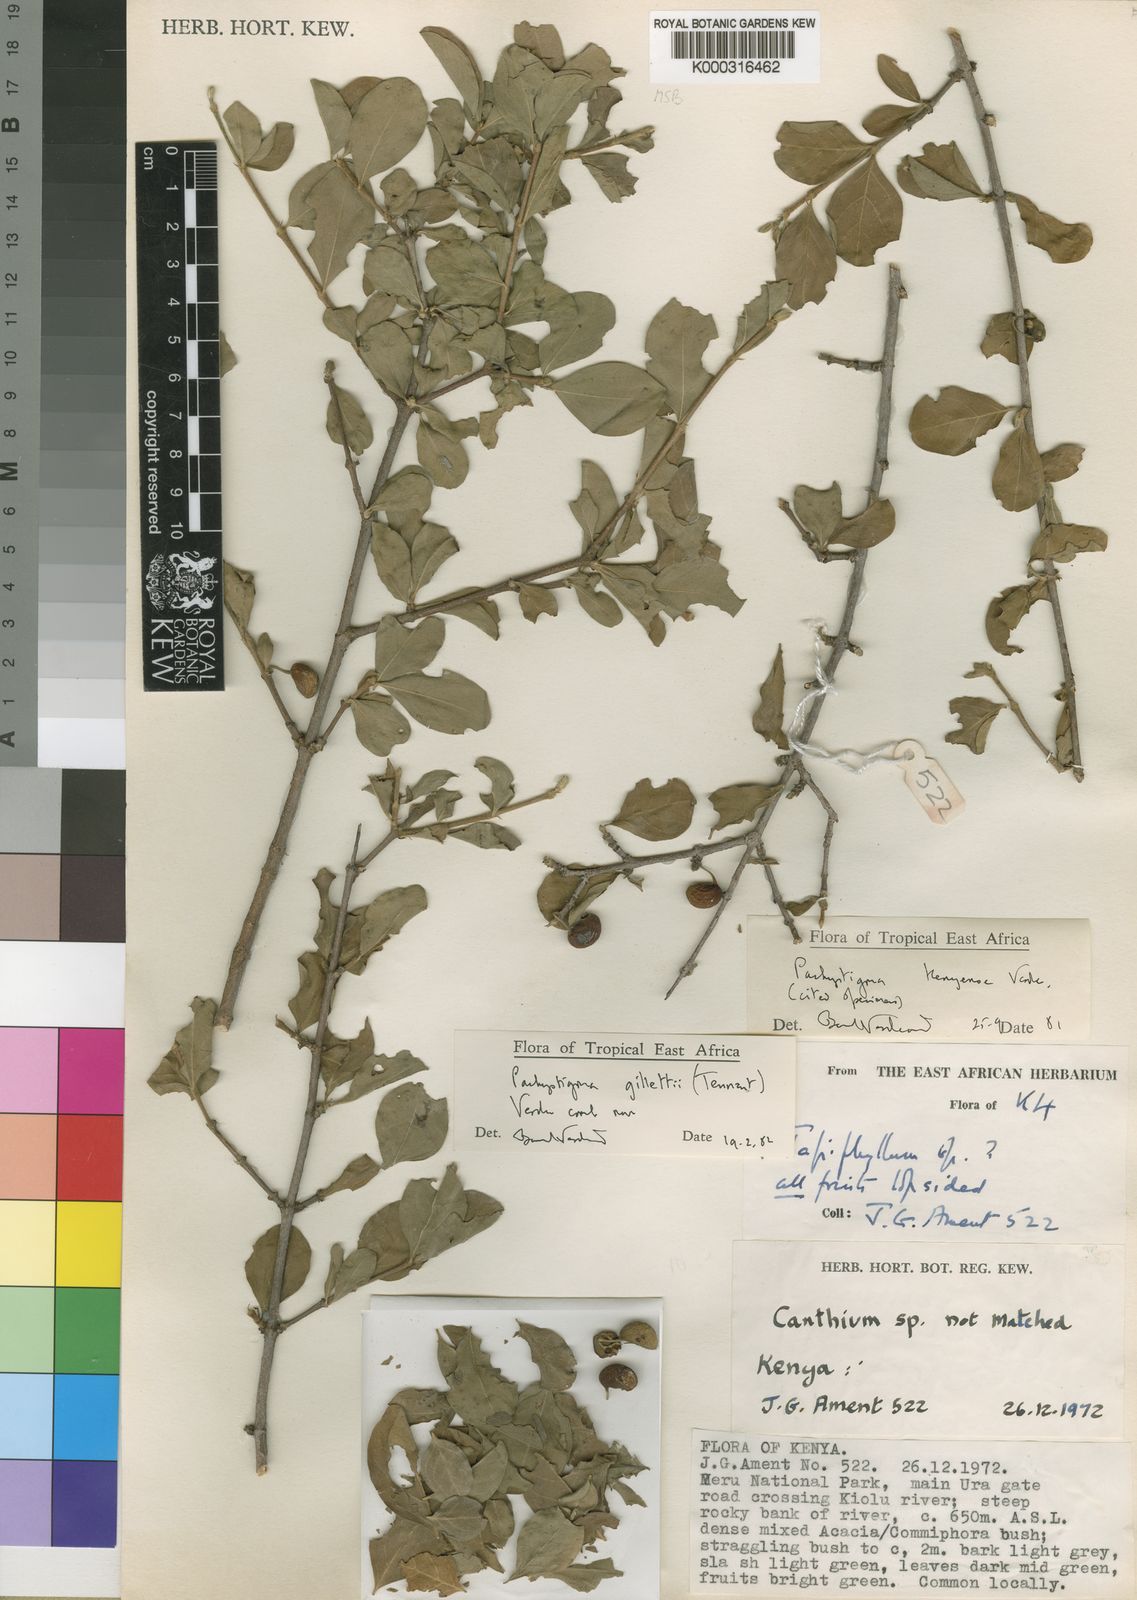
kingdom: Plantae
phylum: Tracheophyta
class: Magnoliopsida
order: Gentianales
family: Rubiaceae
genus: Vangueria
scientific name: Vangueria gillettii
